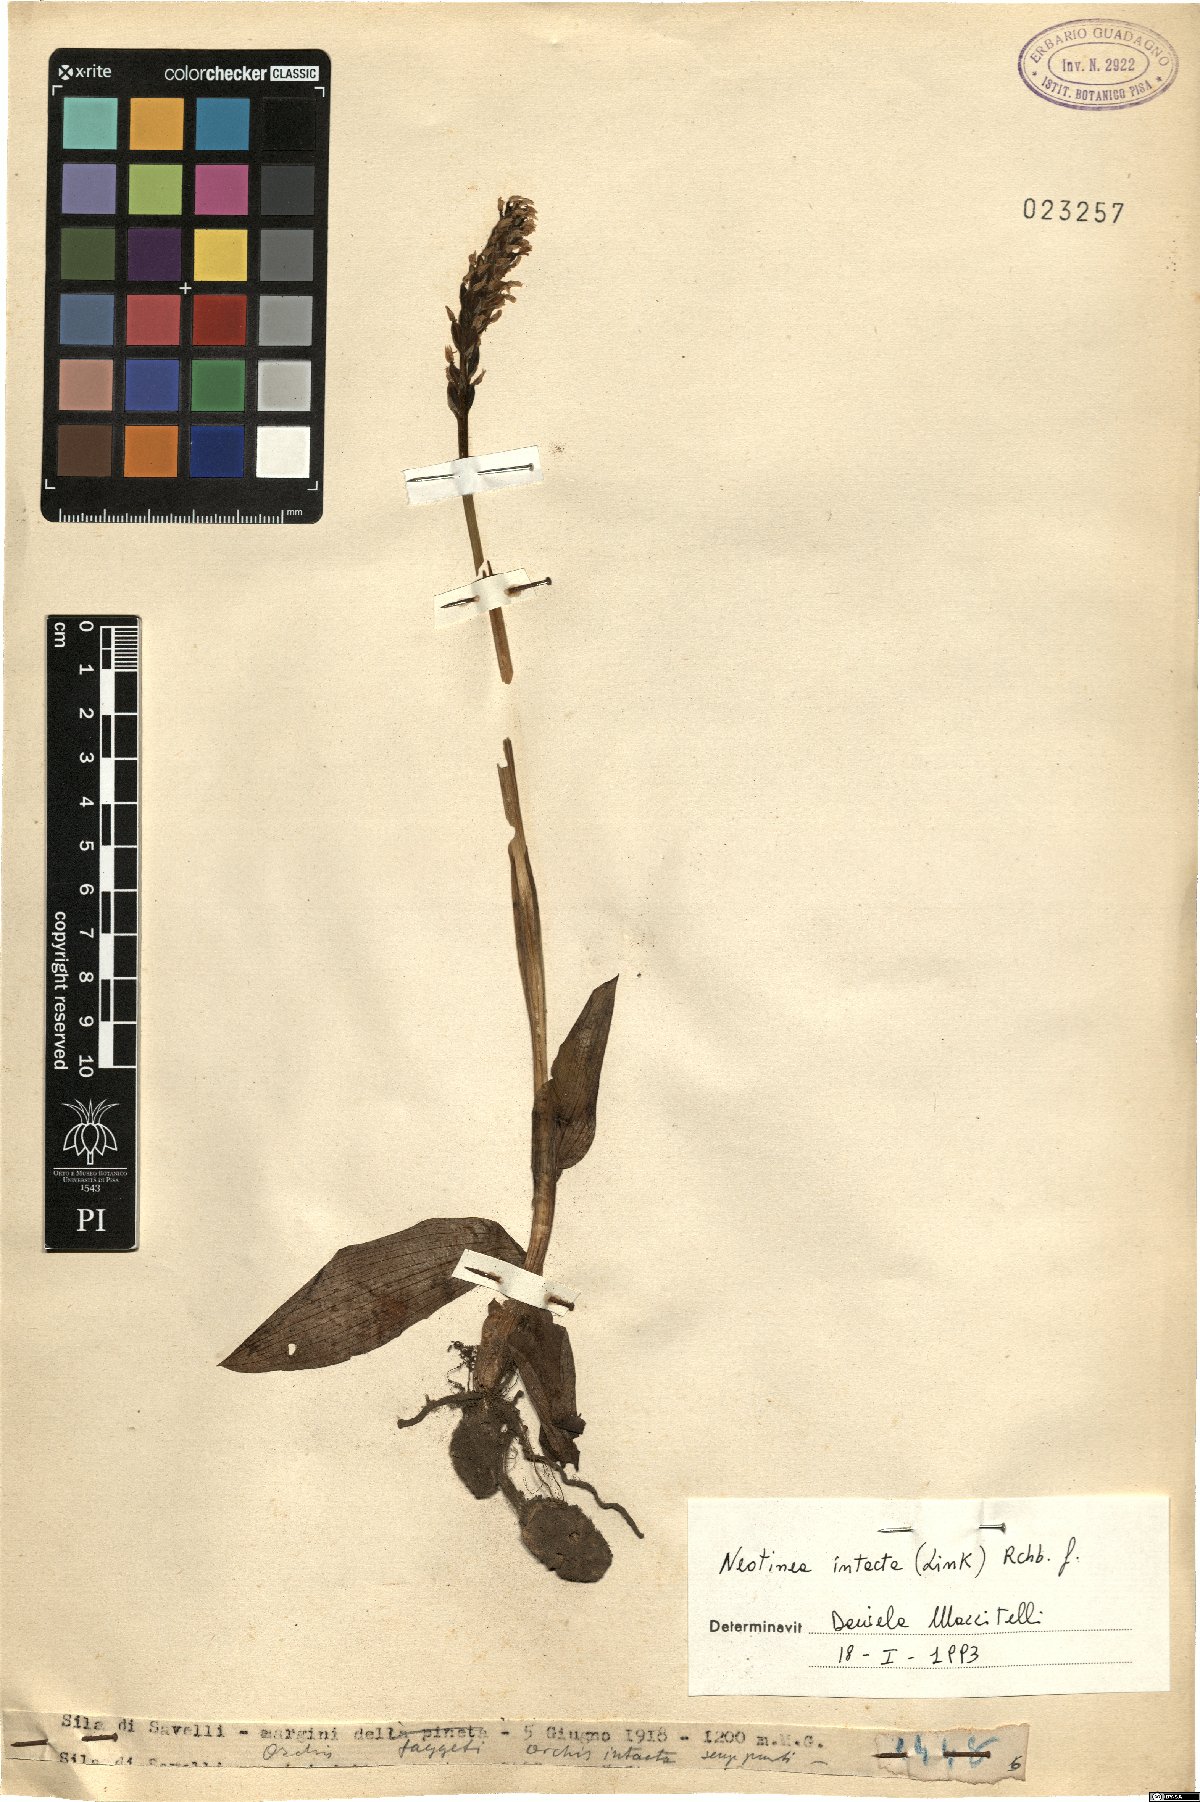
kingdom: Plantae
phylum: Tracheophyta
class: Liliopsida
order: Asparagales
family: Orchidaceae
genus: Neotinea
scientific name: Neotinea maculata
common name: Dense-flowered orchid
